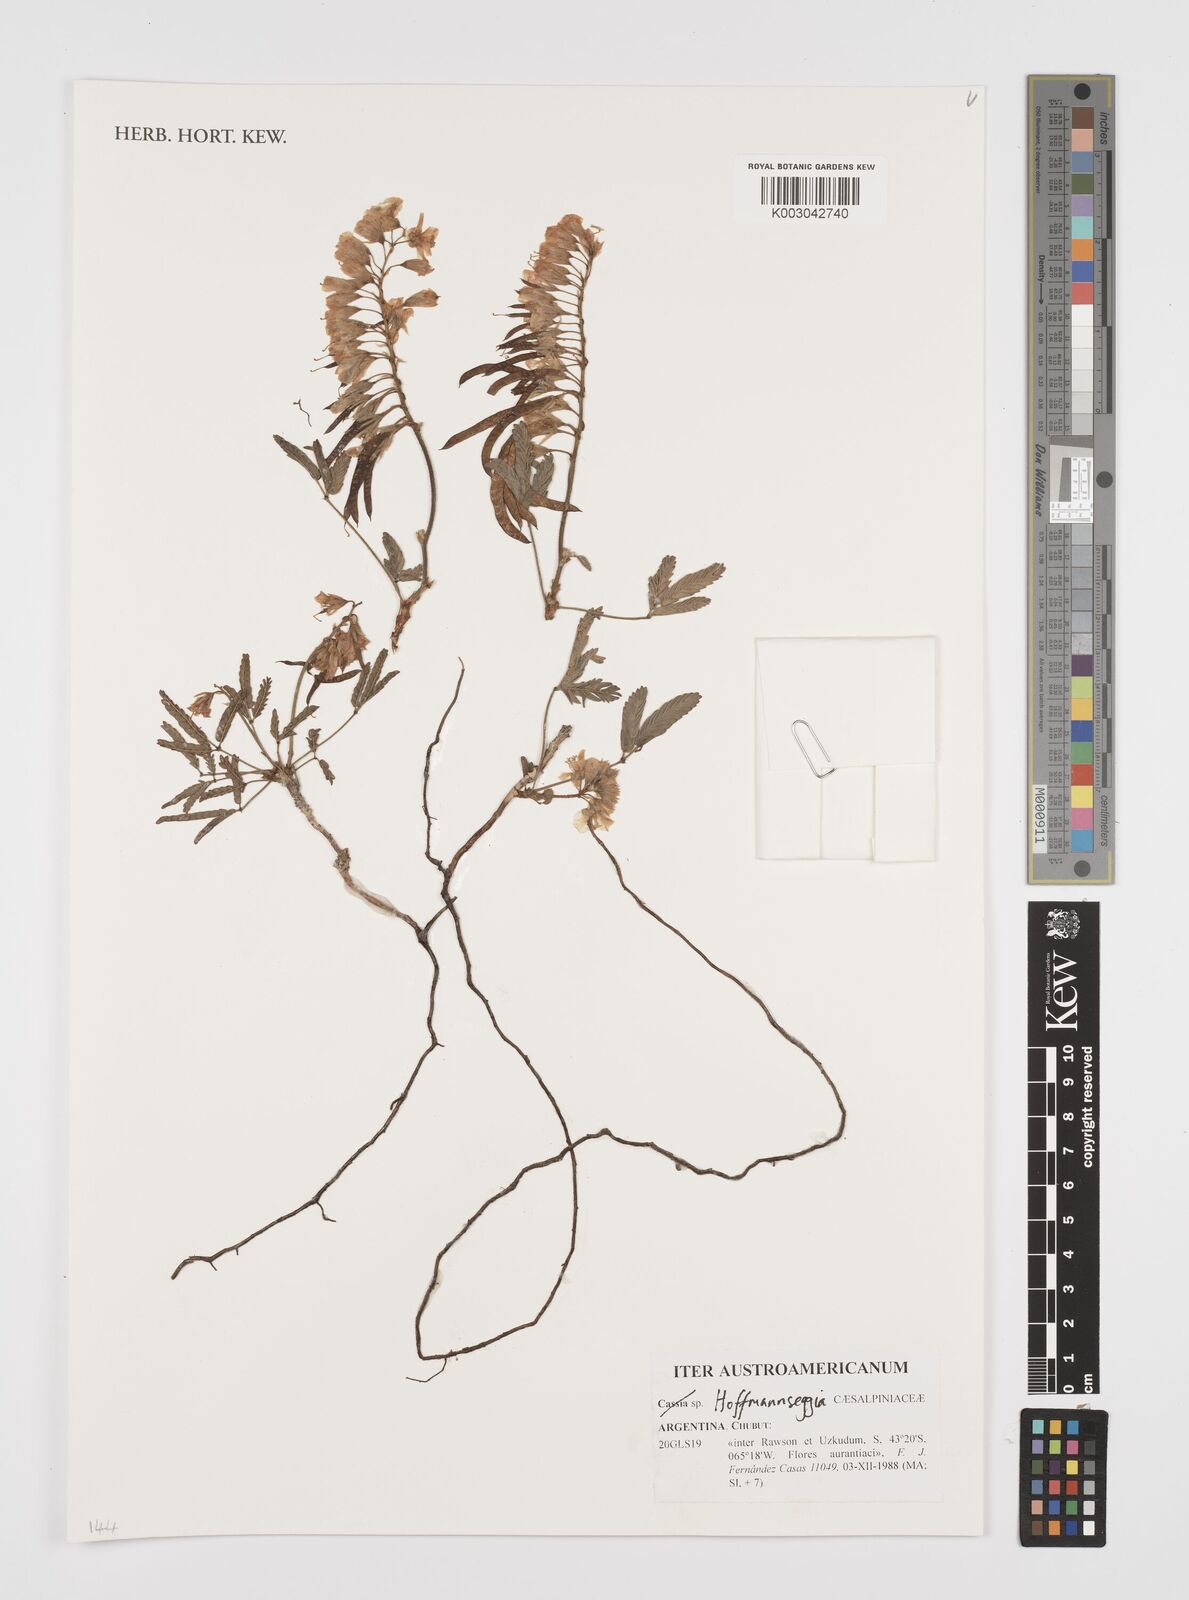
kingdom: Plantae
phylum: Tracheophyta
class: Magnoliopsida
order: Fabales
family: Fabaceae
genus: Hoffmannseggia
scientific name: Hoffmannseggia
